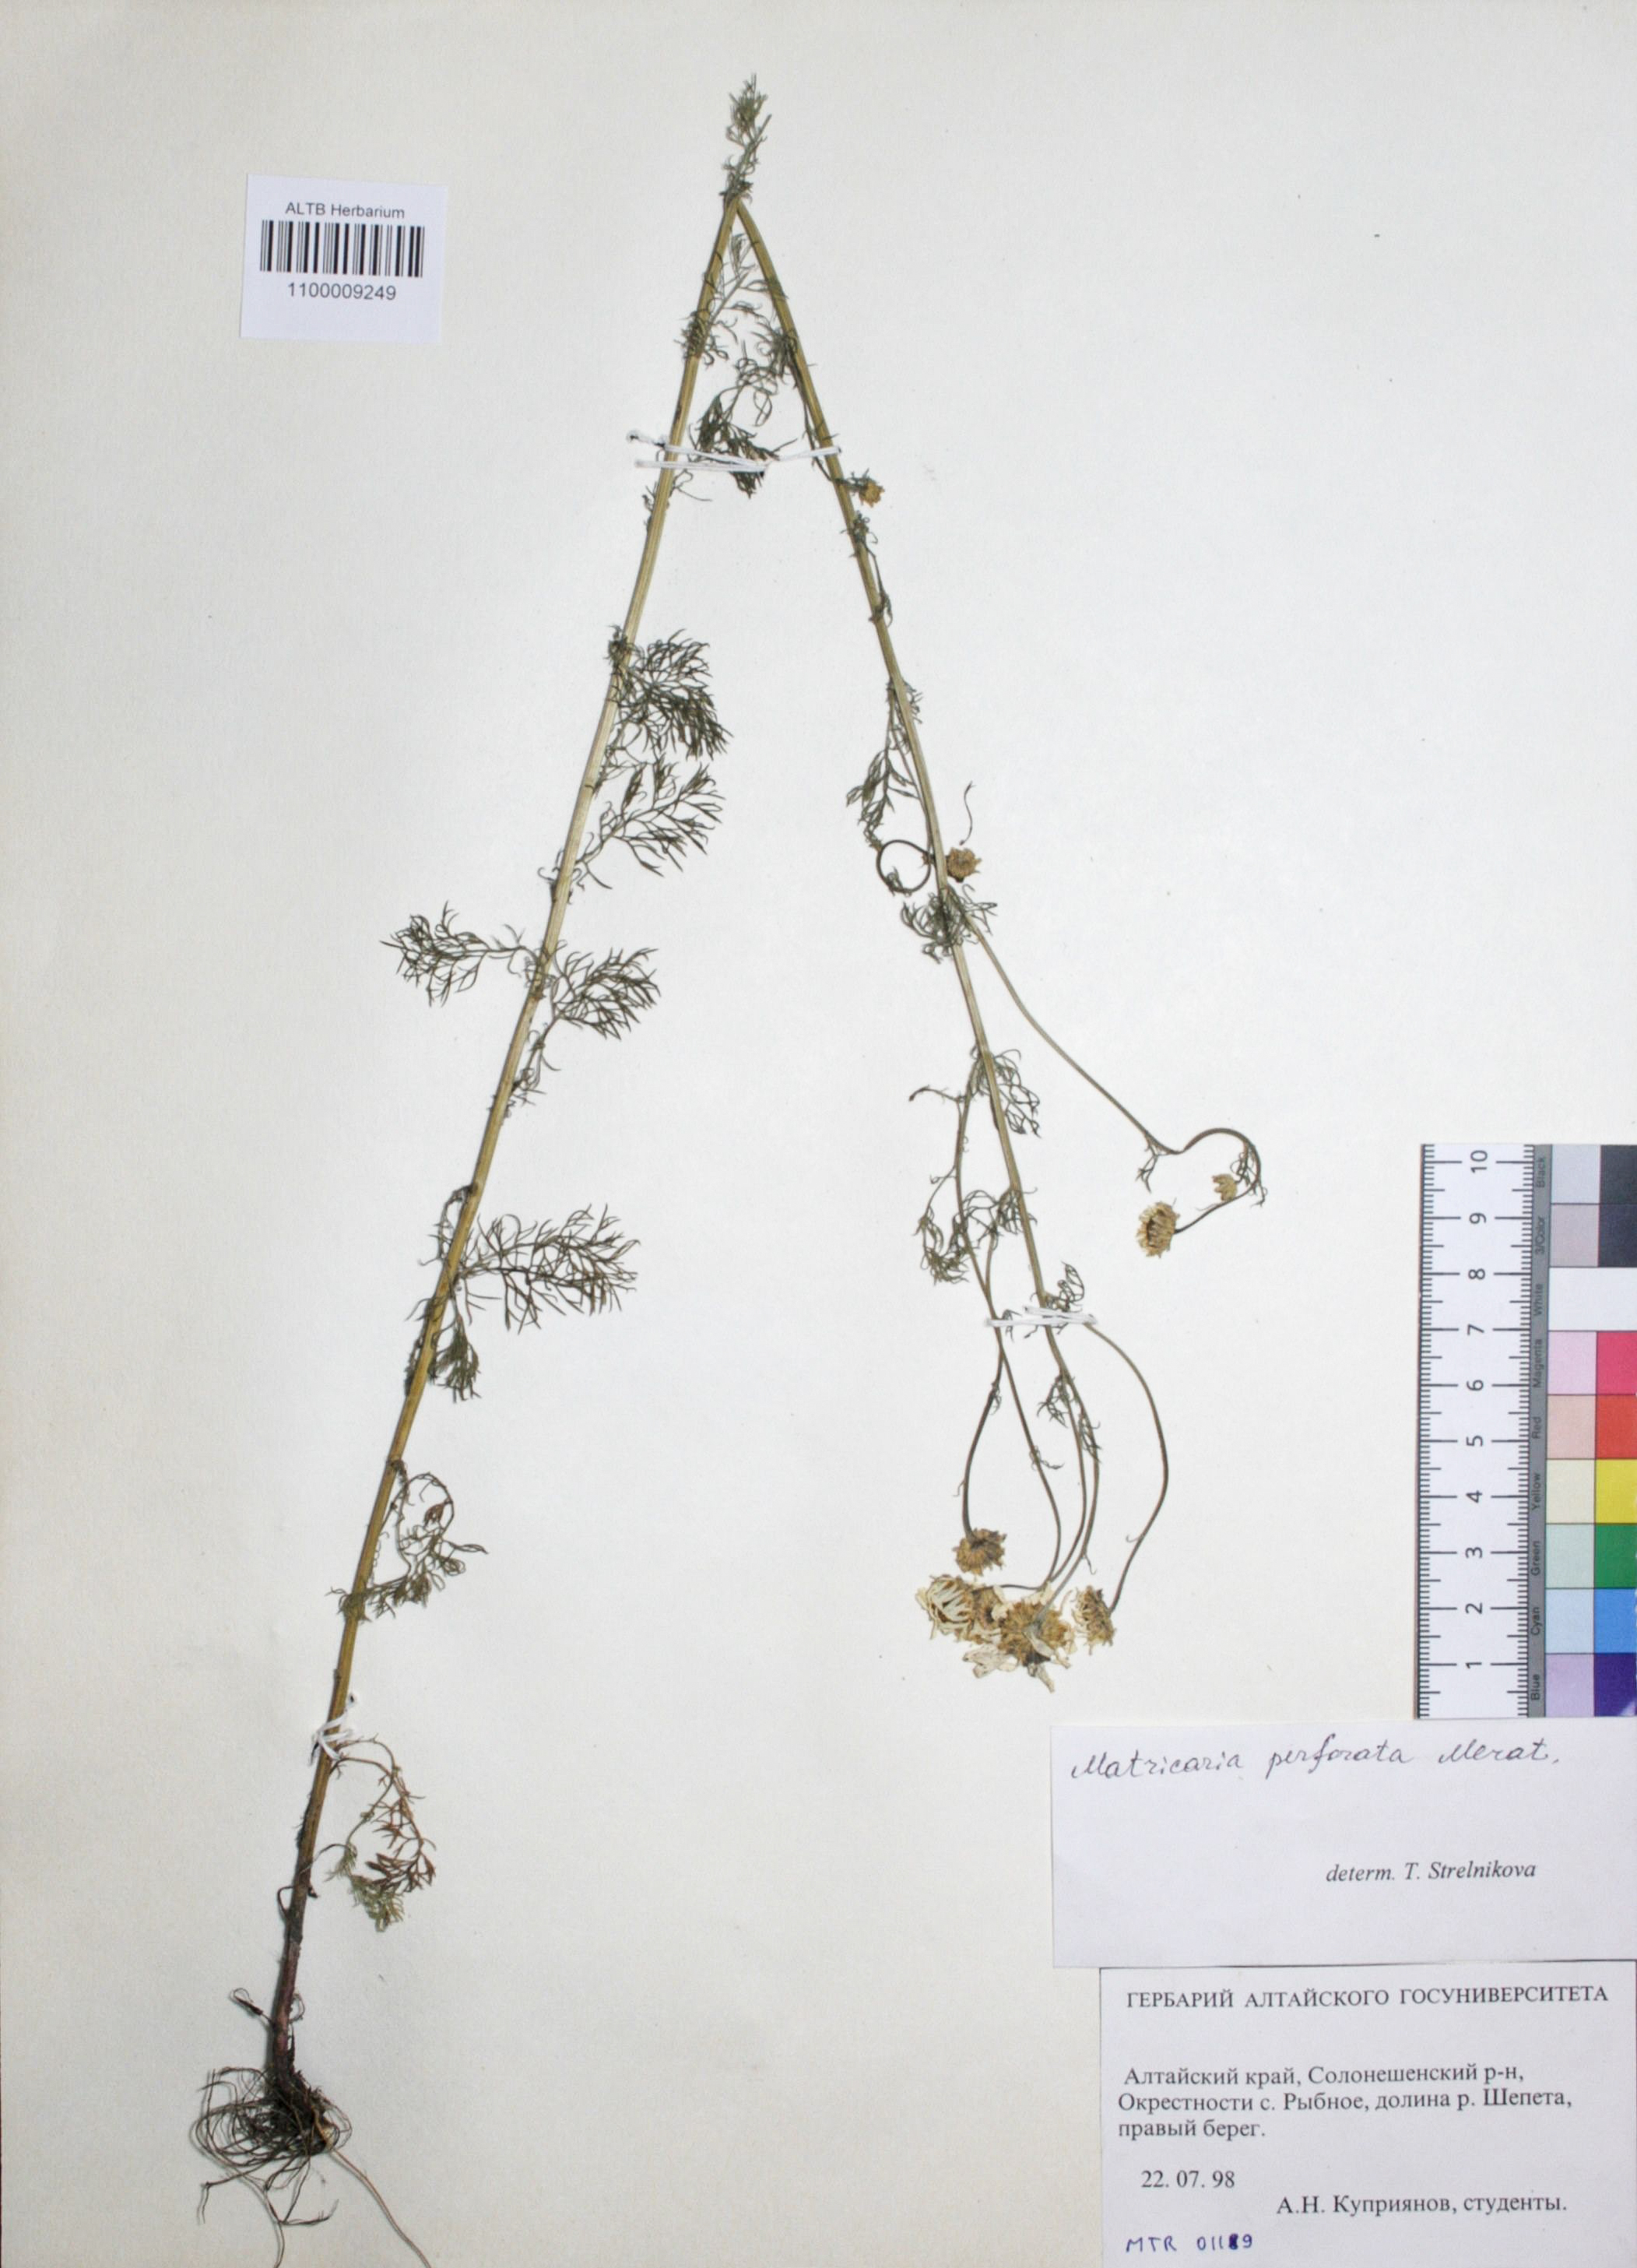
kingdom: Plantae
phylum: Tracheophyta
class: Magnoliopsida
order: Asterales
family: Asteraceae
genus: Tripleurospermum
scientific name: Tripleurospermum inodorum
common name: Scentless mayweed
